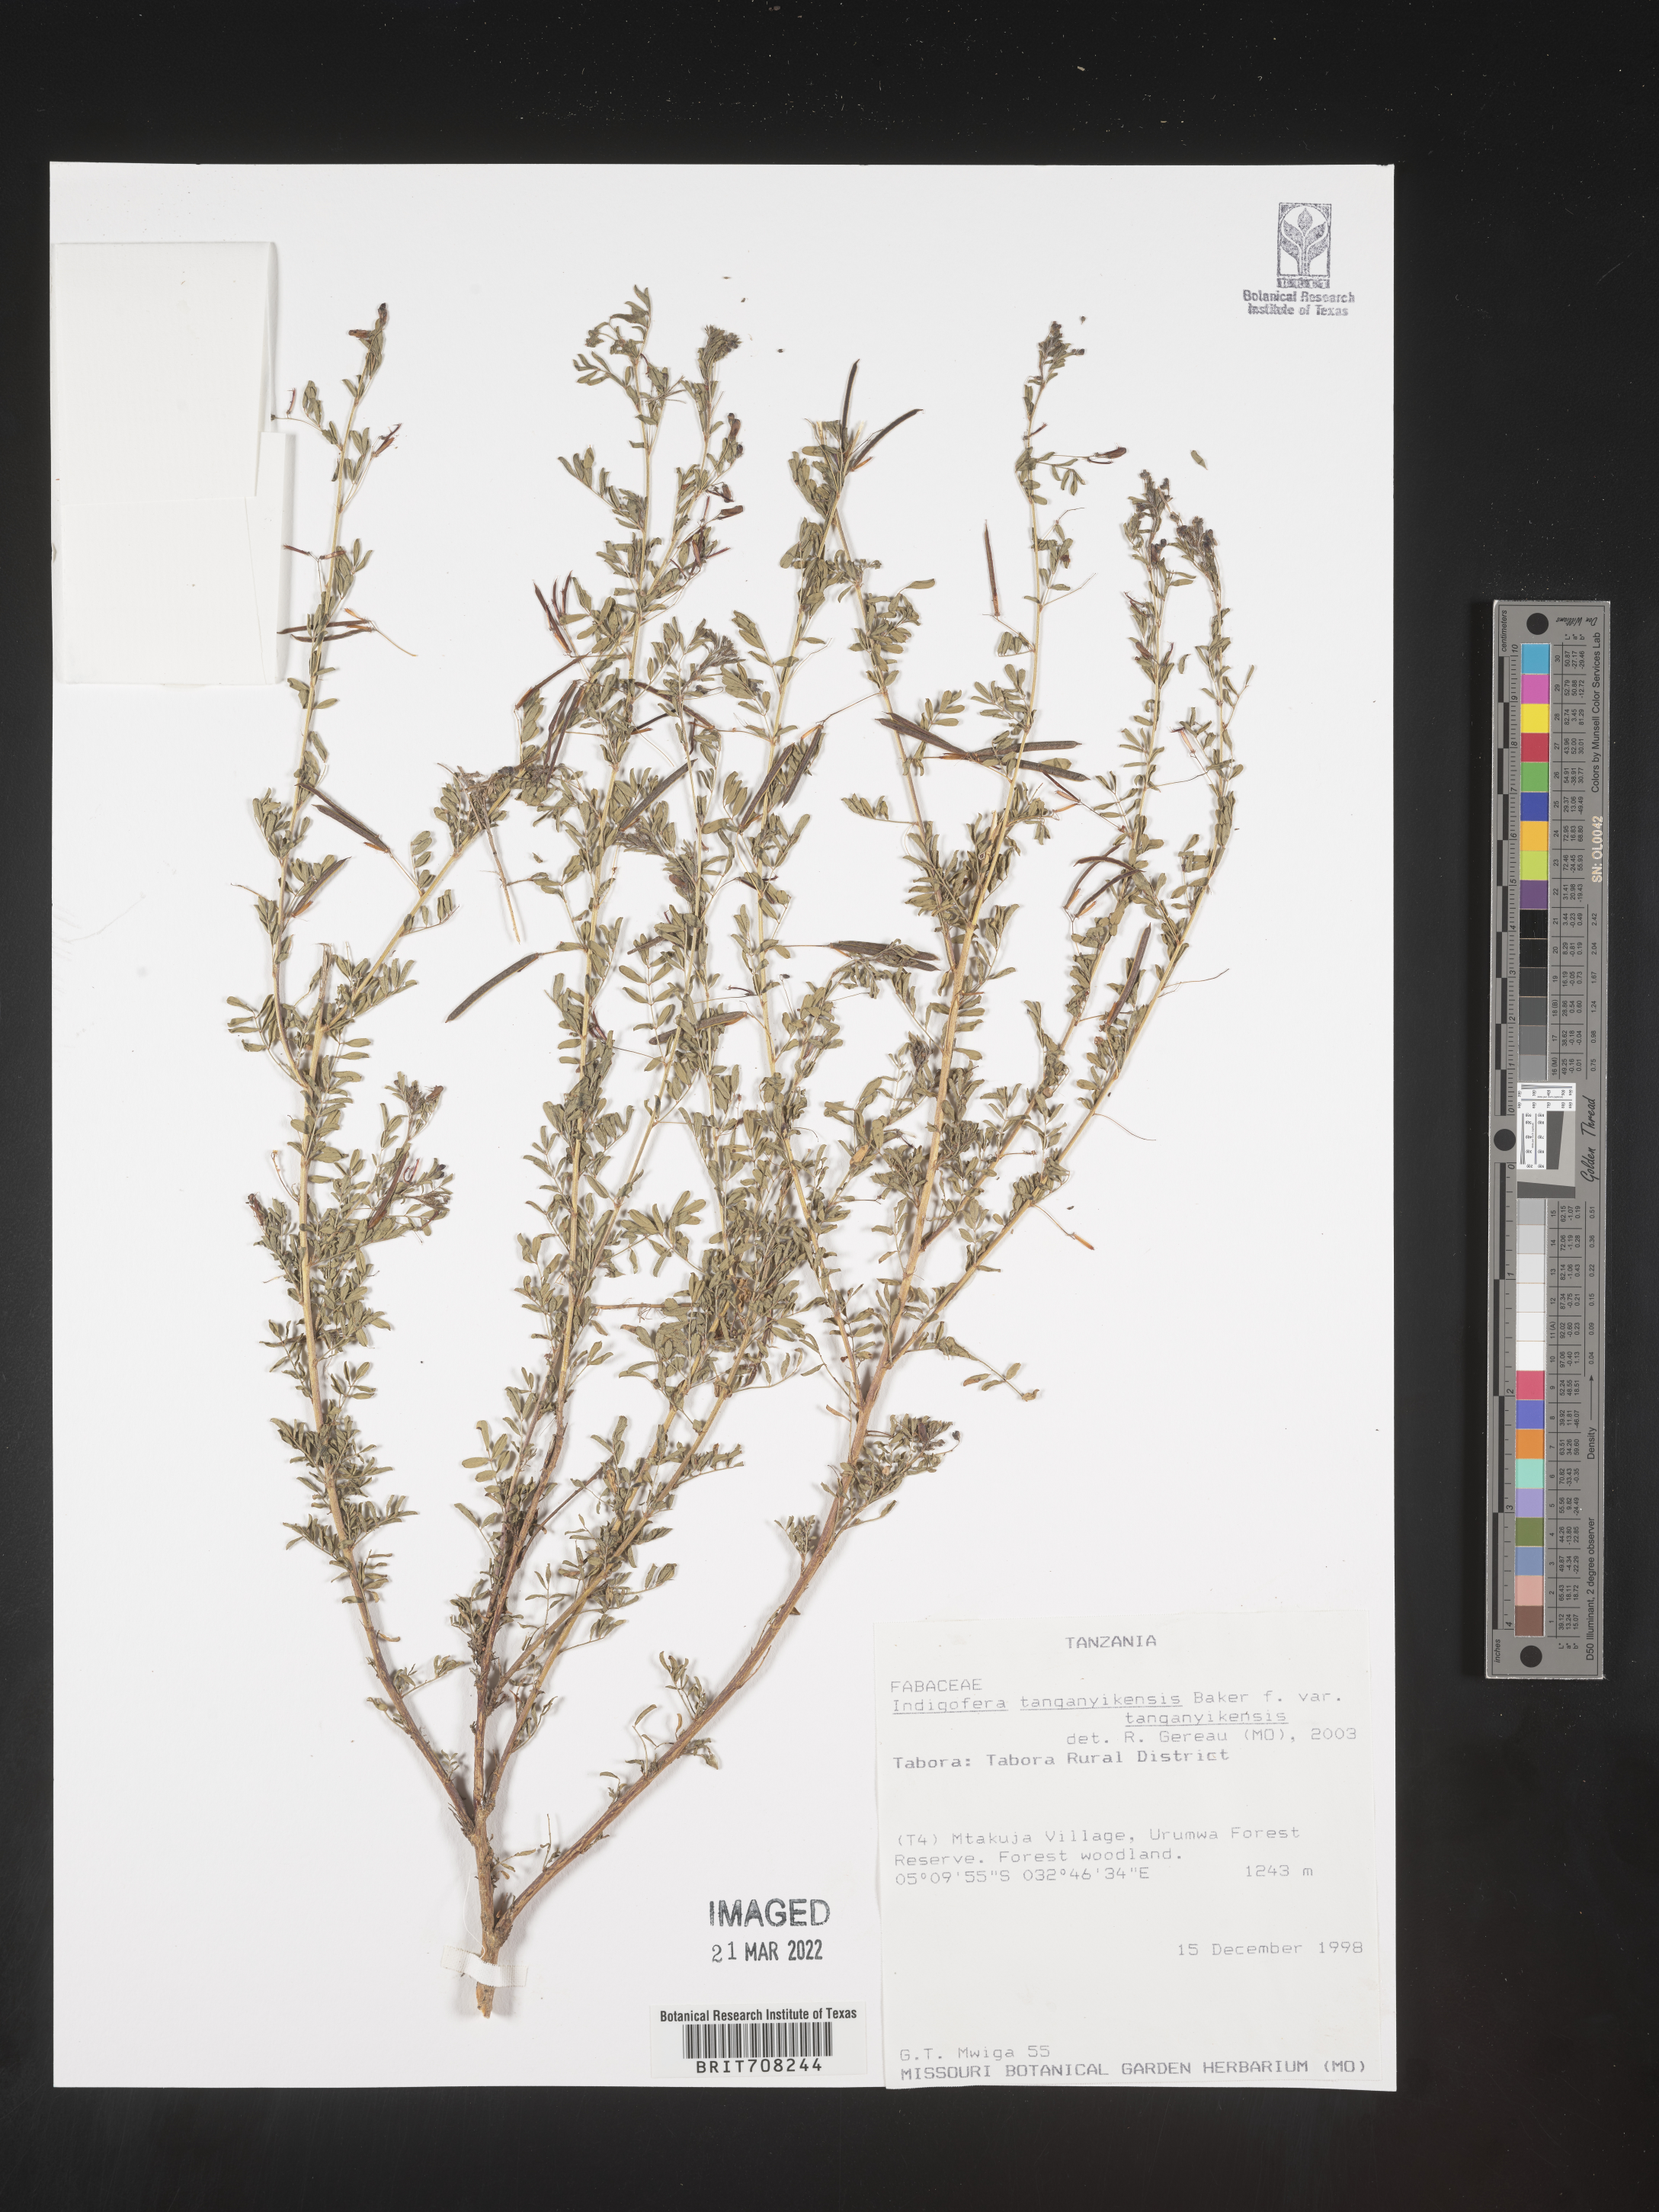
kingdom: Plantae
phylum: Tracheophyta
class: Magnoliopsida
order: Fabales
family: Fabaceae
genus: Indigofera
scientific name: Indigofera
